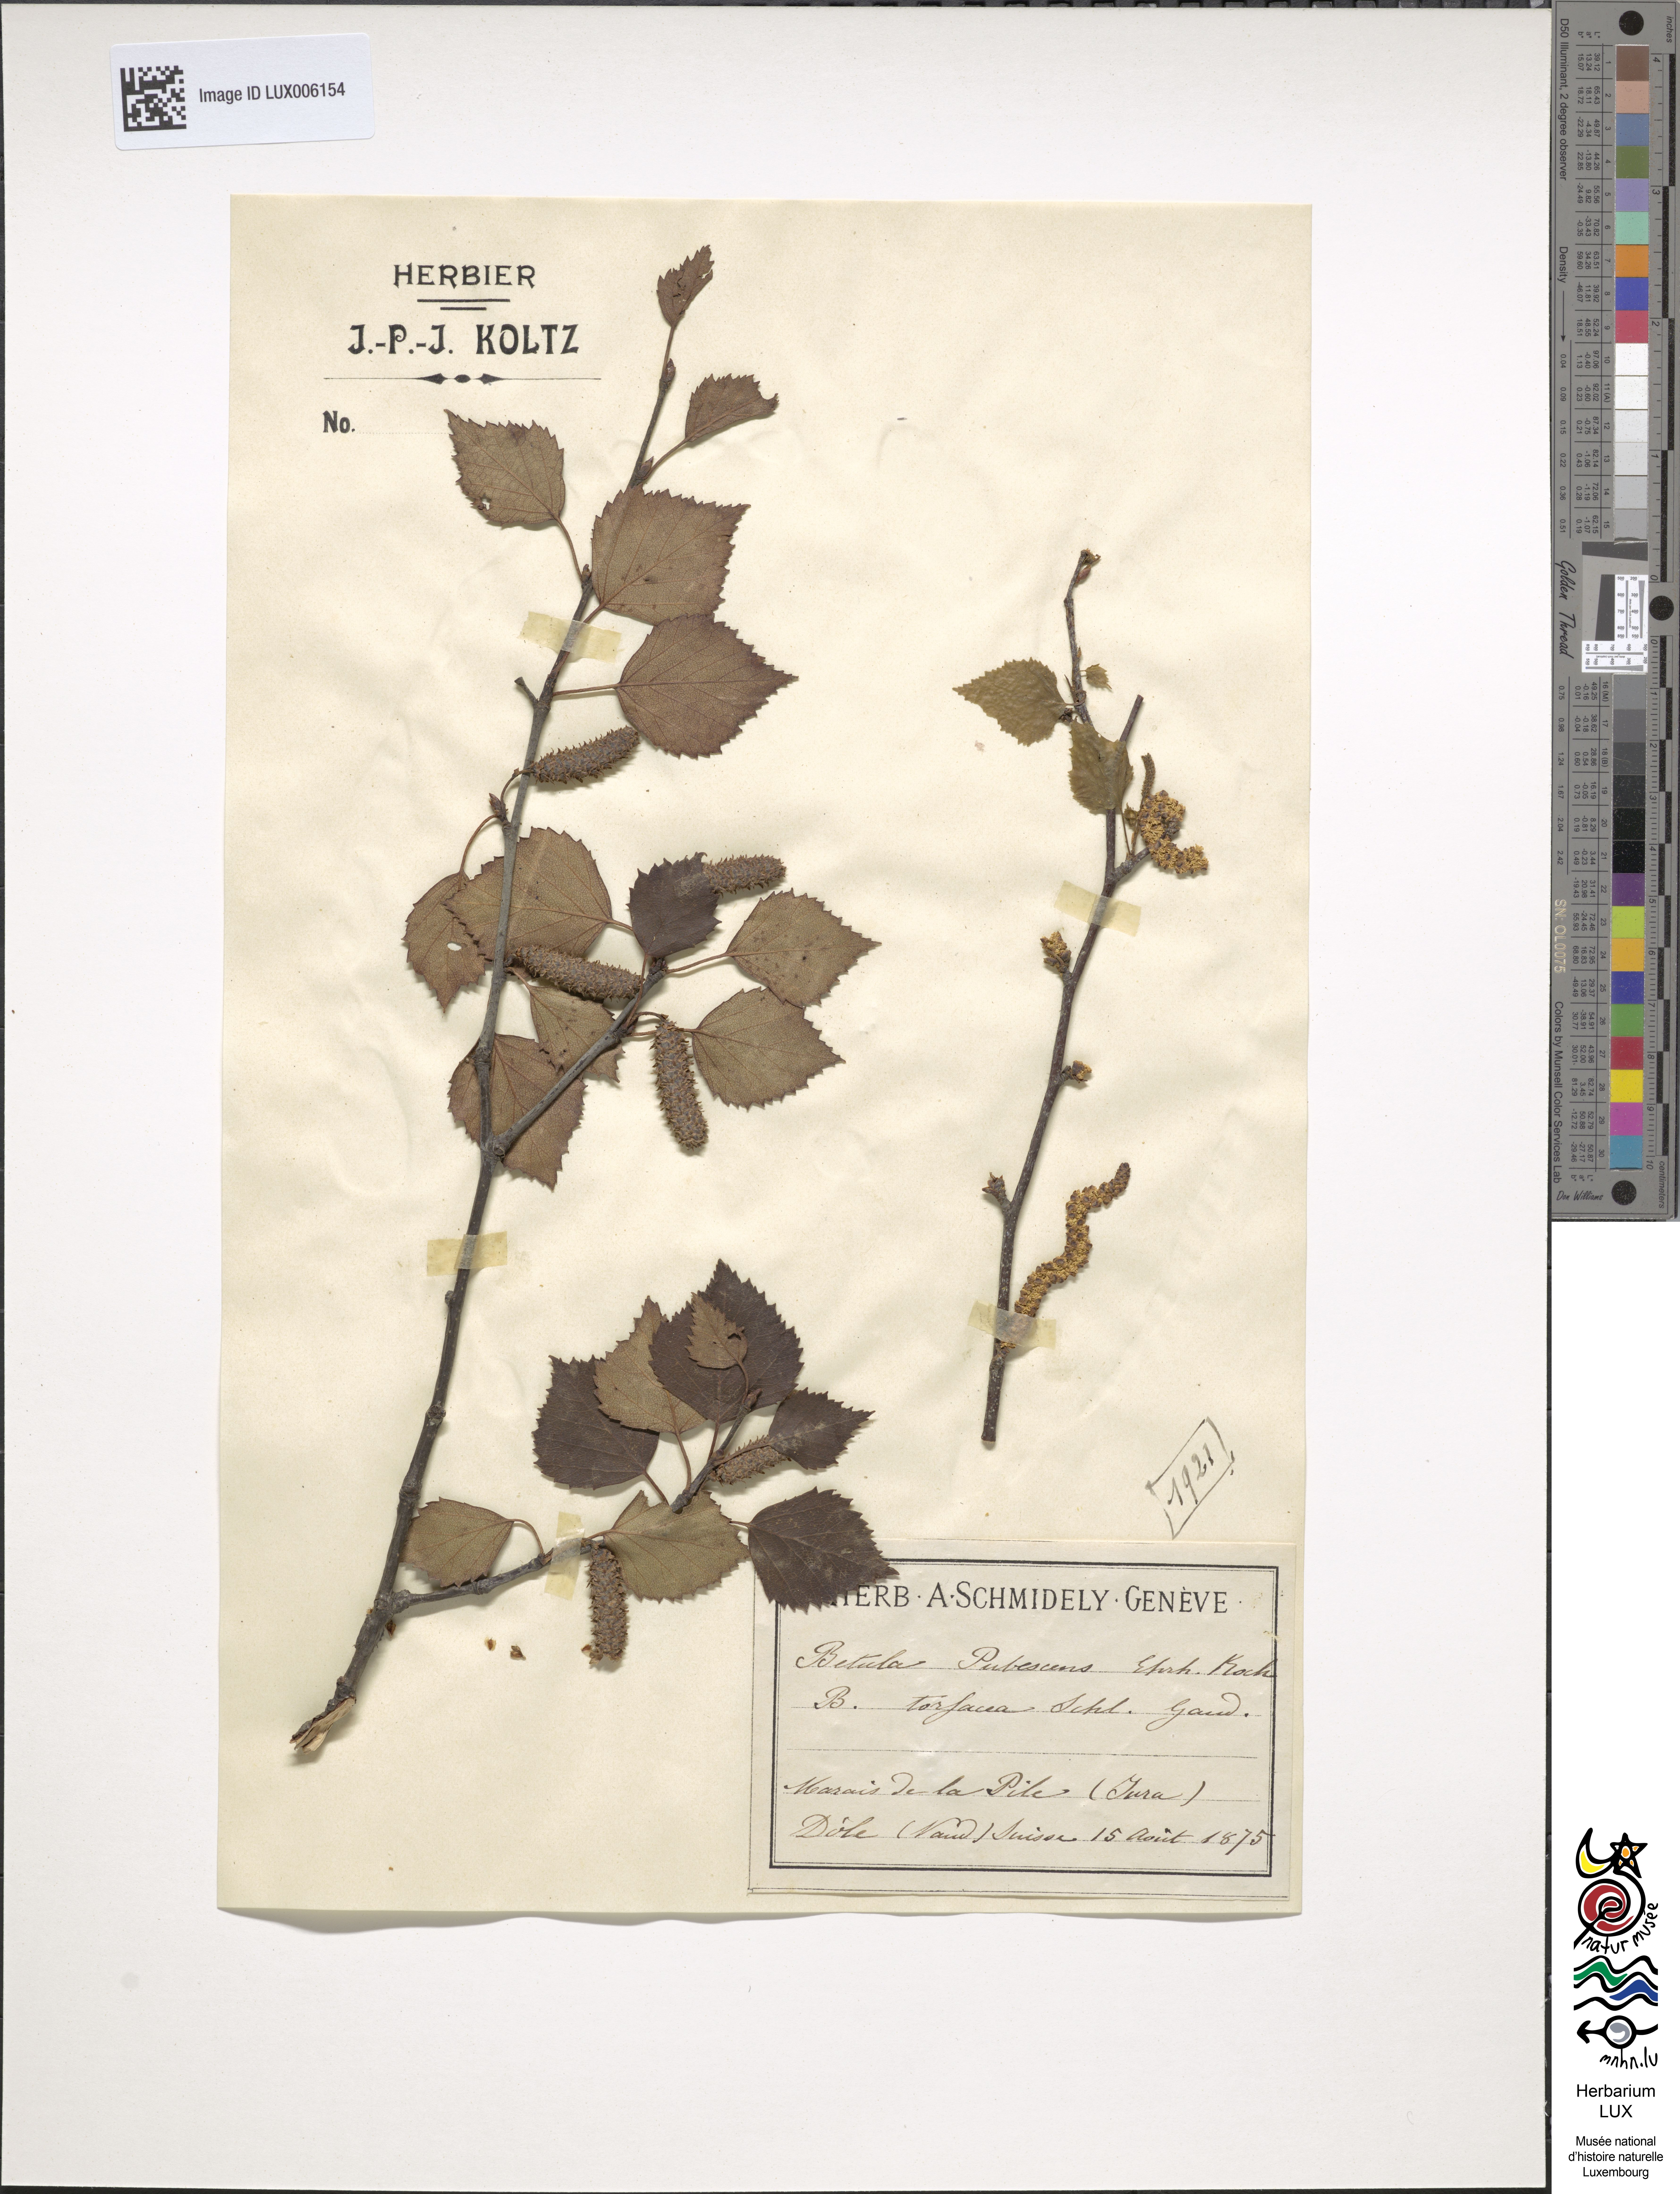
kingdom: Plantae
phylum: Tracheophyta
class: Magnoliopsida
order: Fagales
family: Betulaceae
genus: Betula
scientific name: Betula pubescens
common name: Downy birch
